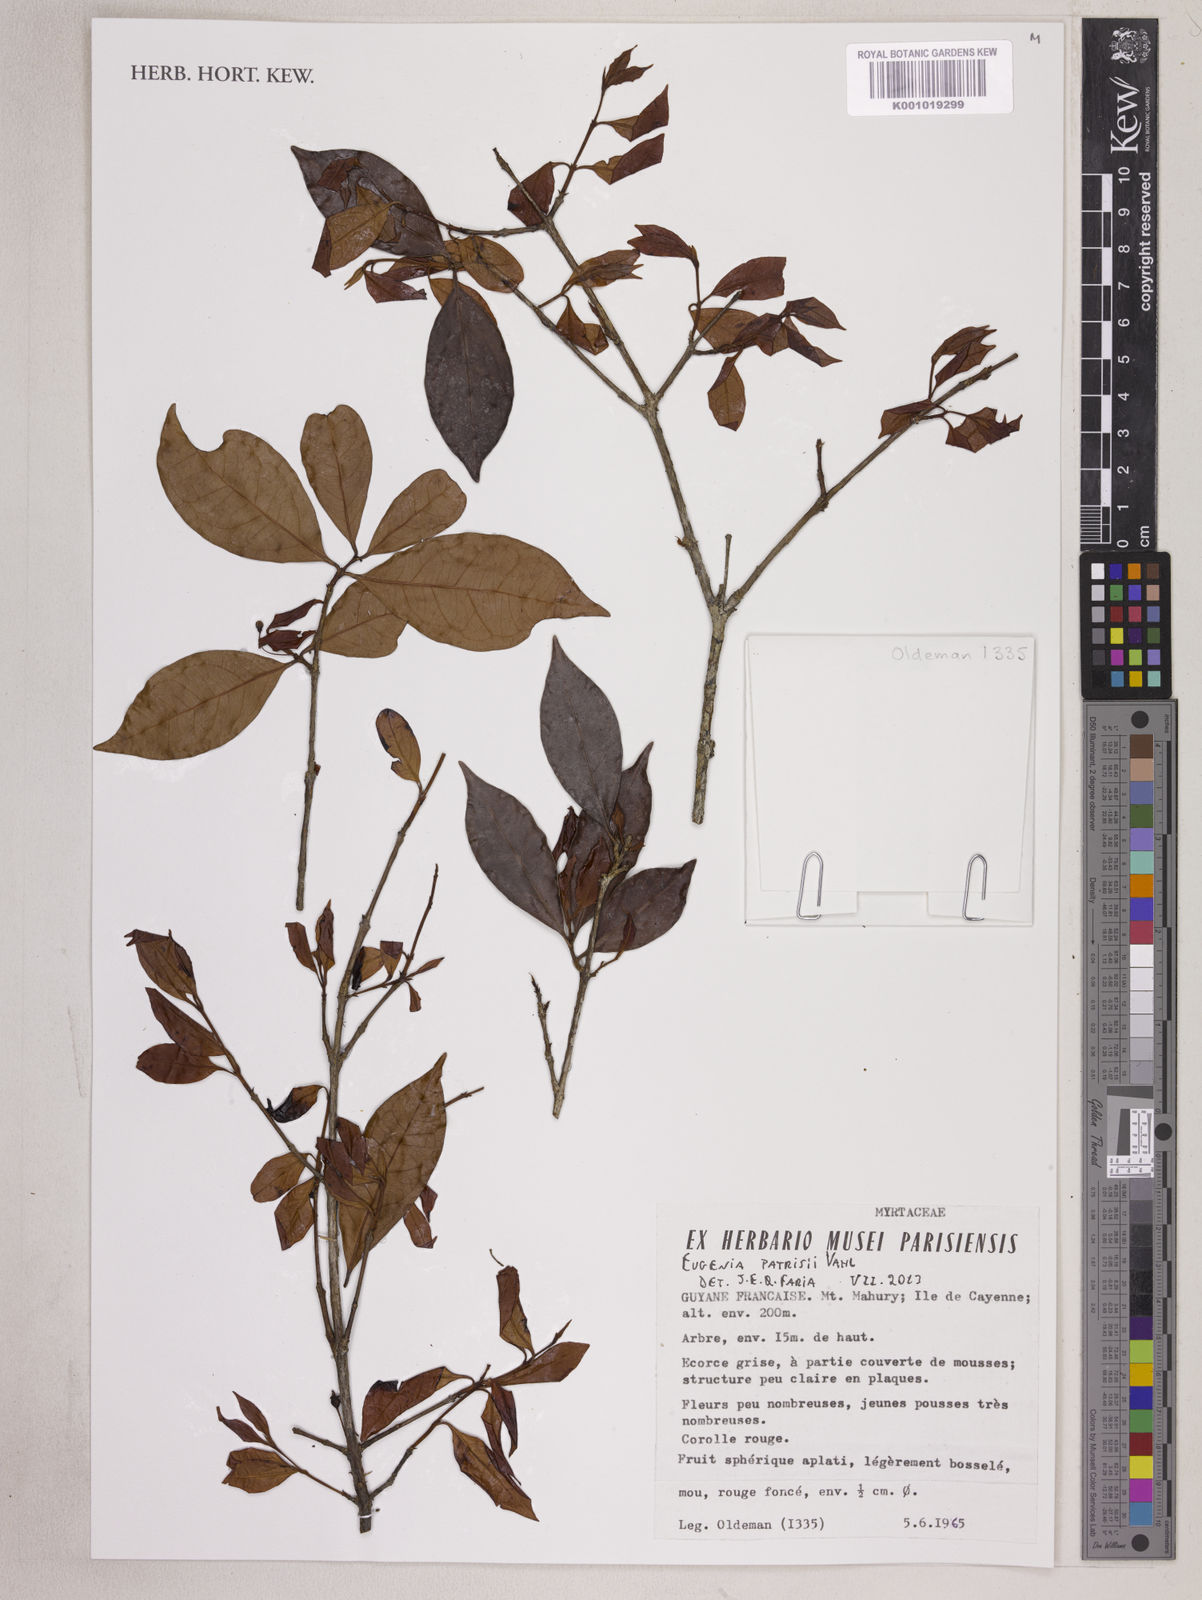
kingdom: Plantae
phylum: Tracheophyta
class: Magnoliopsida
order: Myrtales
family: Myrtaceae
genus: Eugenia
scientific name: Eugenia patrisii
